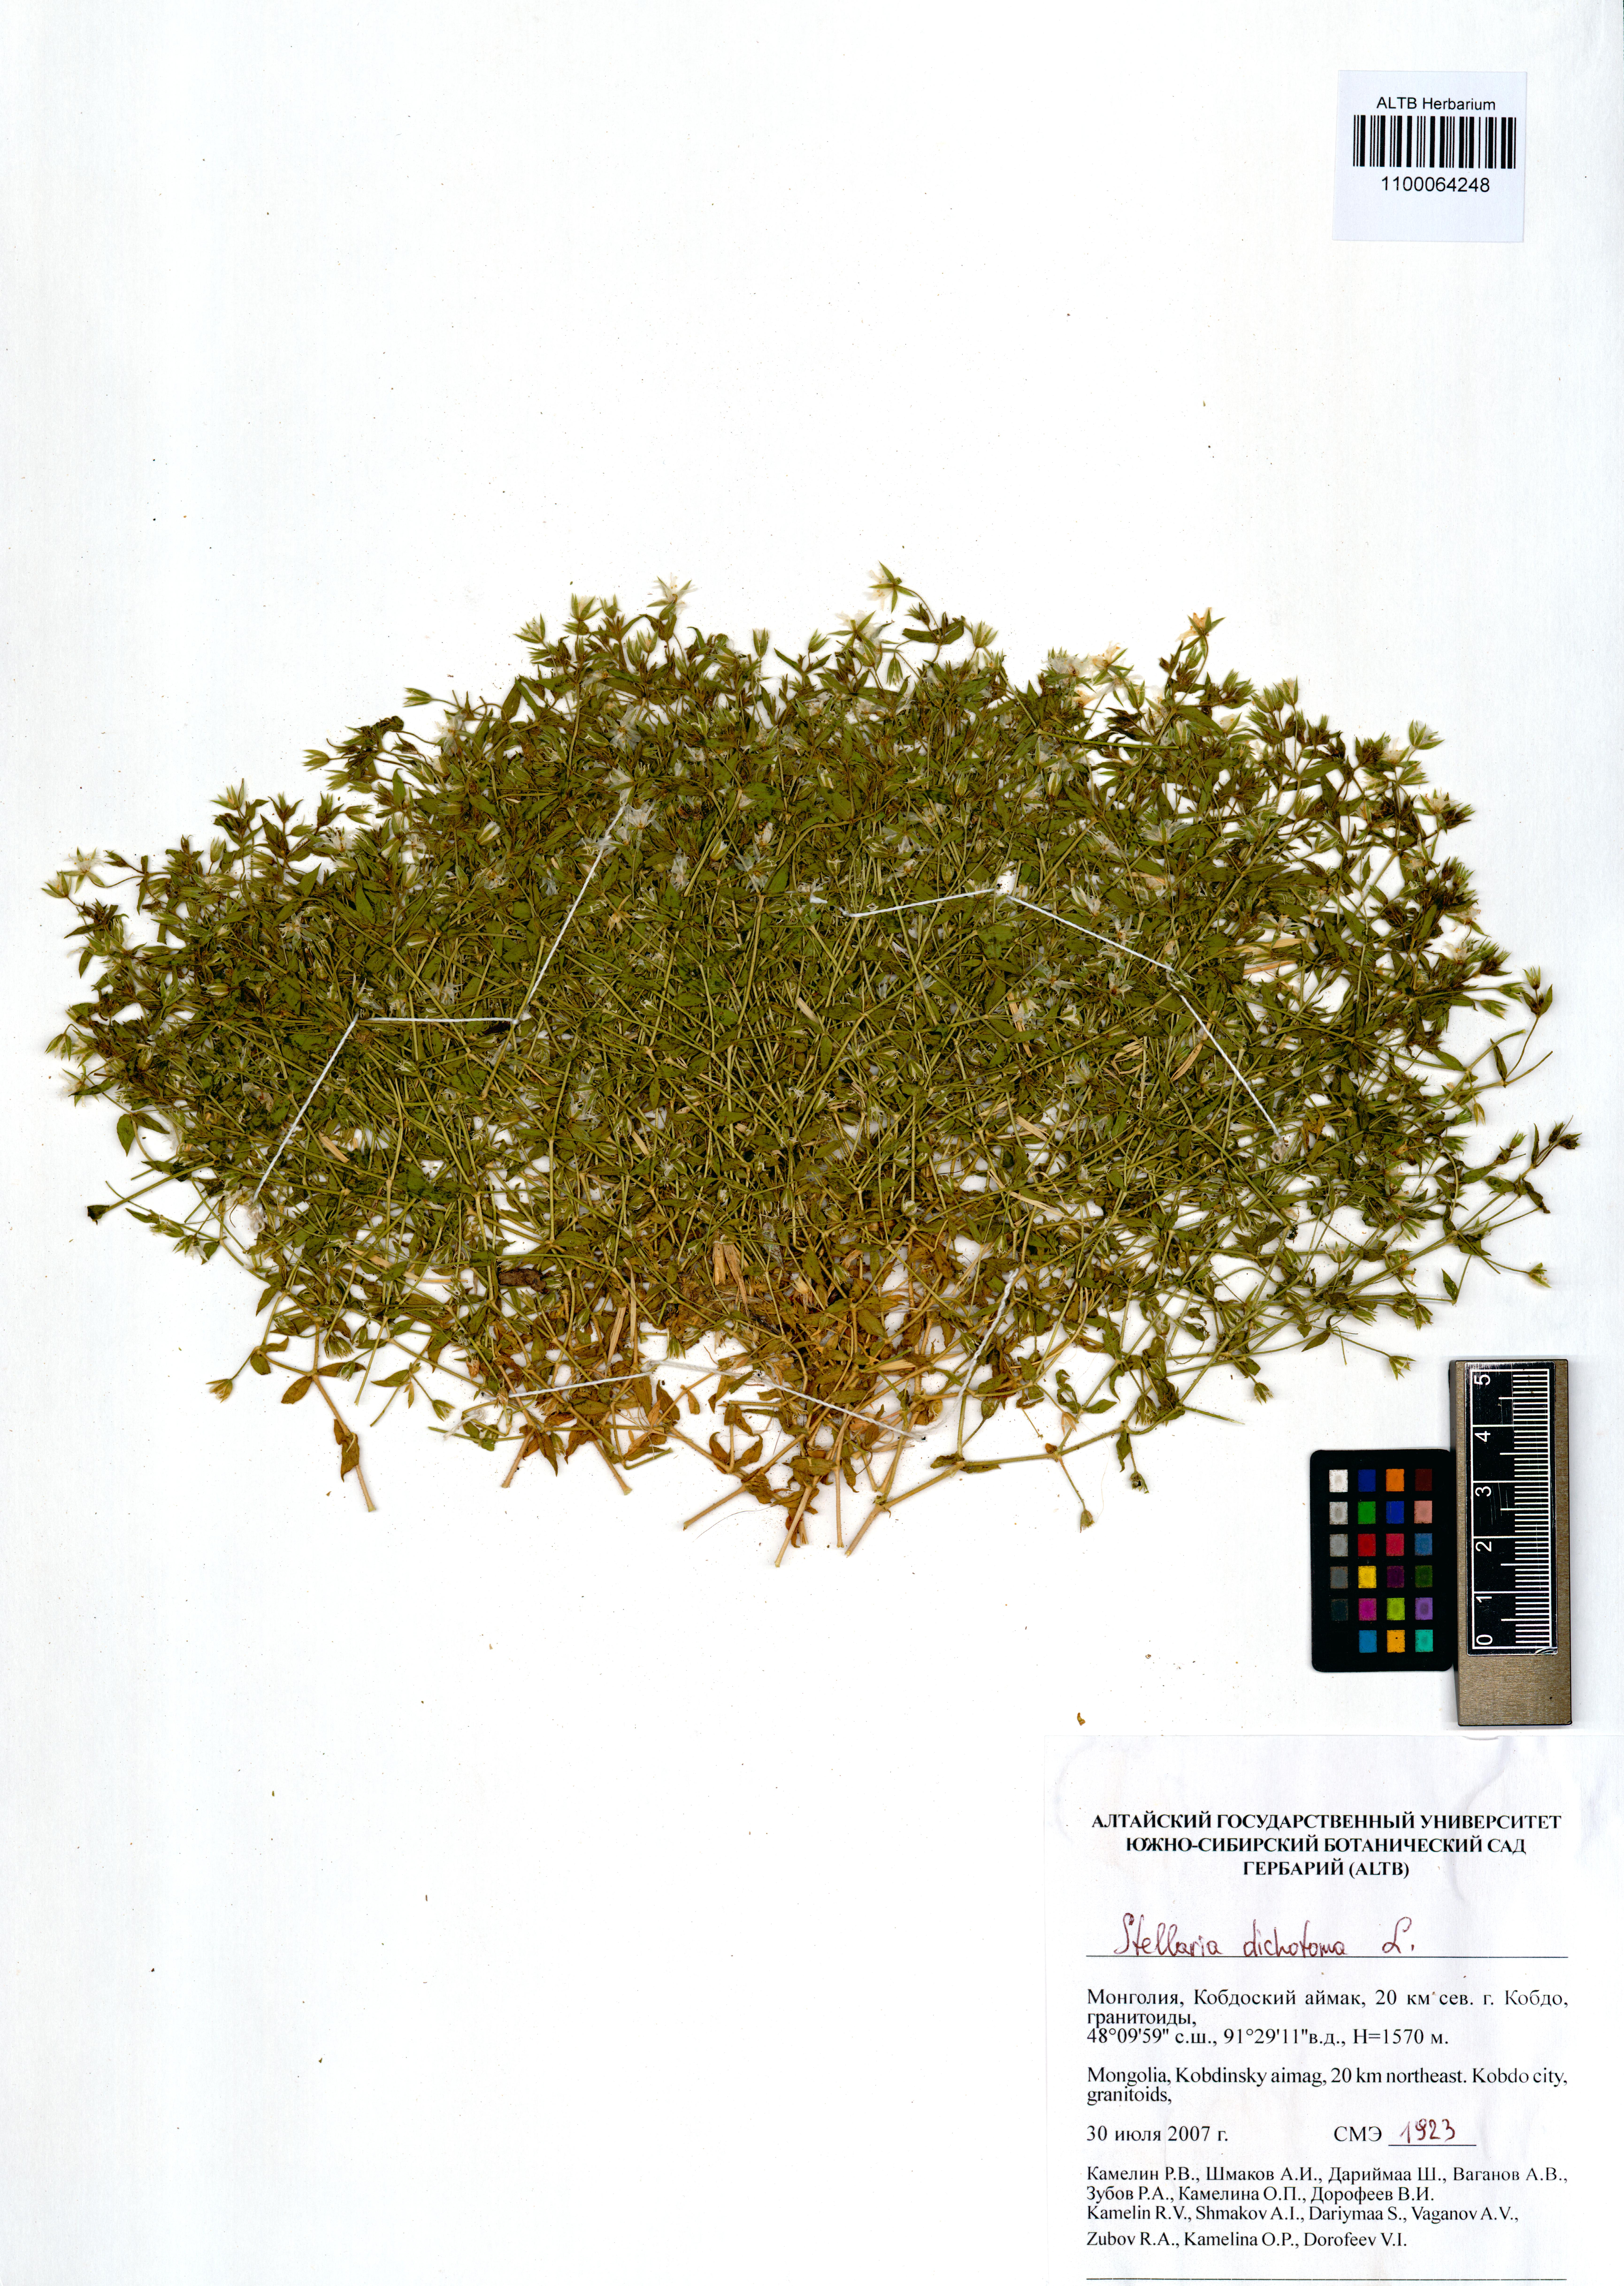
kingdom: Plantae
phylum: Tracheophyta
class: Magnoliopsida
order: Caryophyllales
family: Caryophyllaceae
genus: Mesostemma
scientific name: Mesostemma dichotomum
